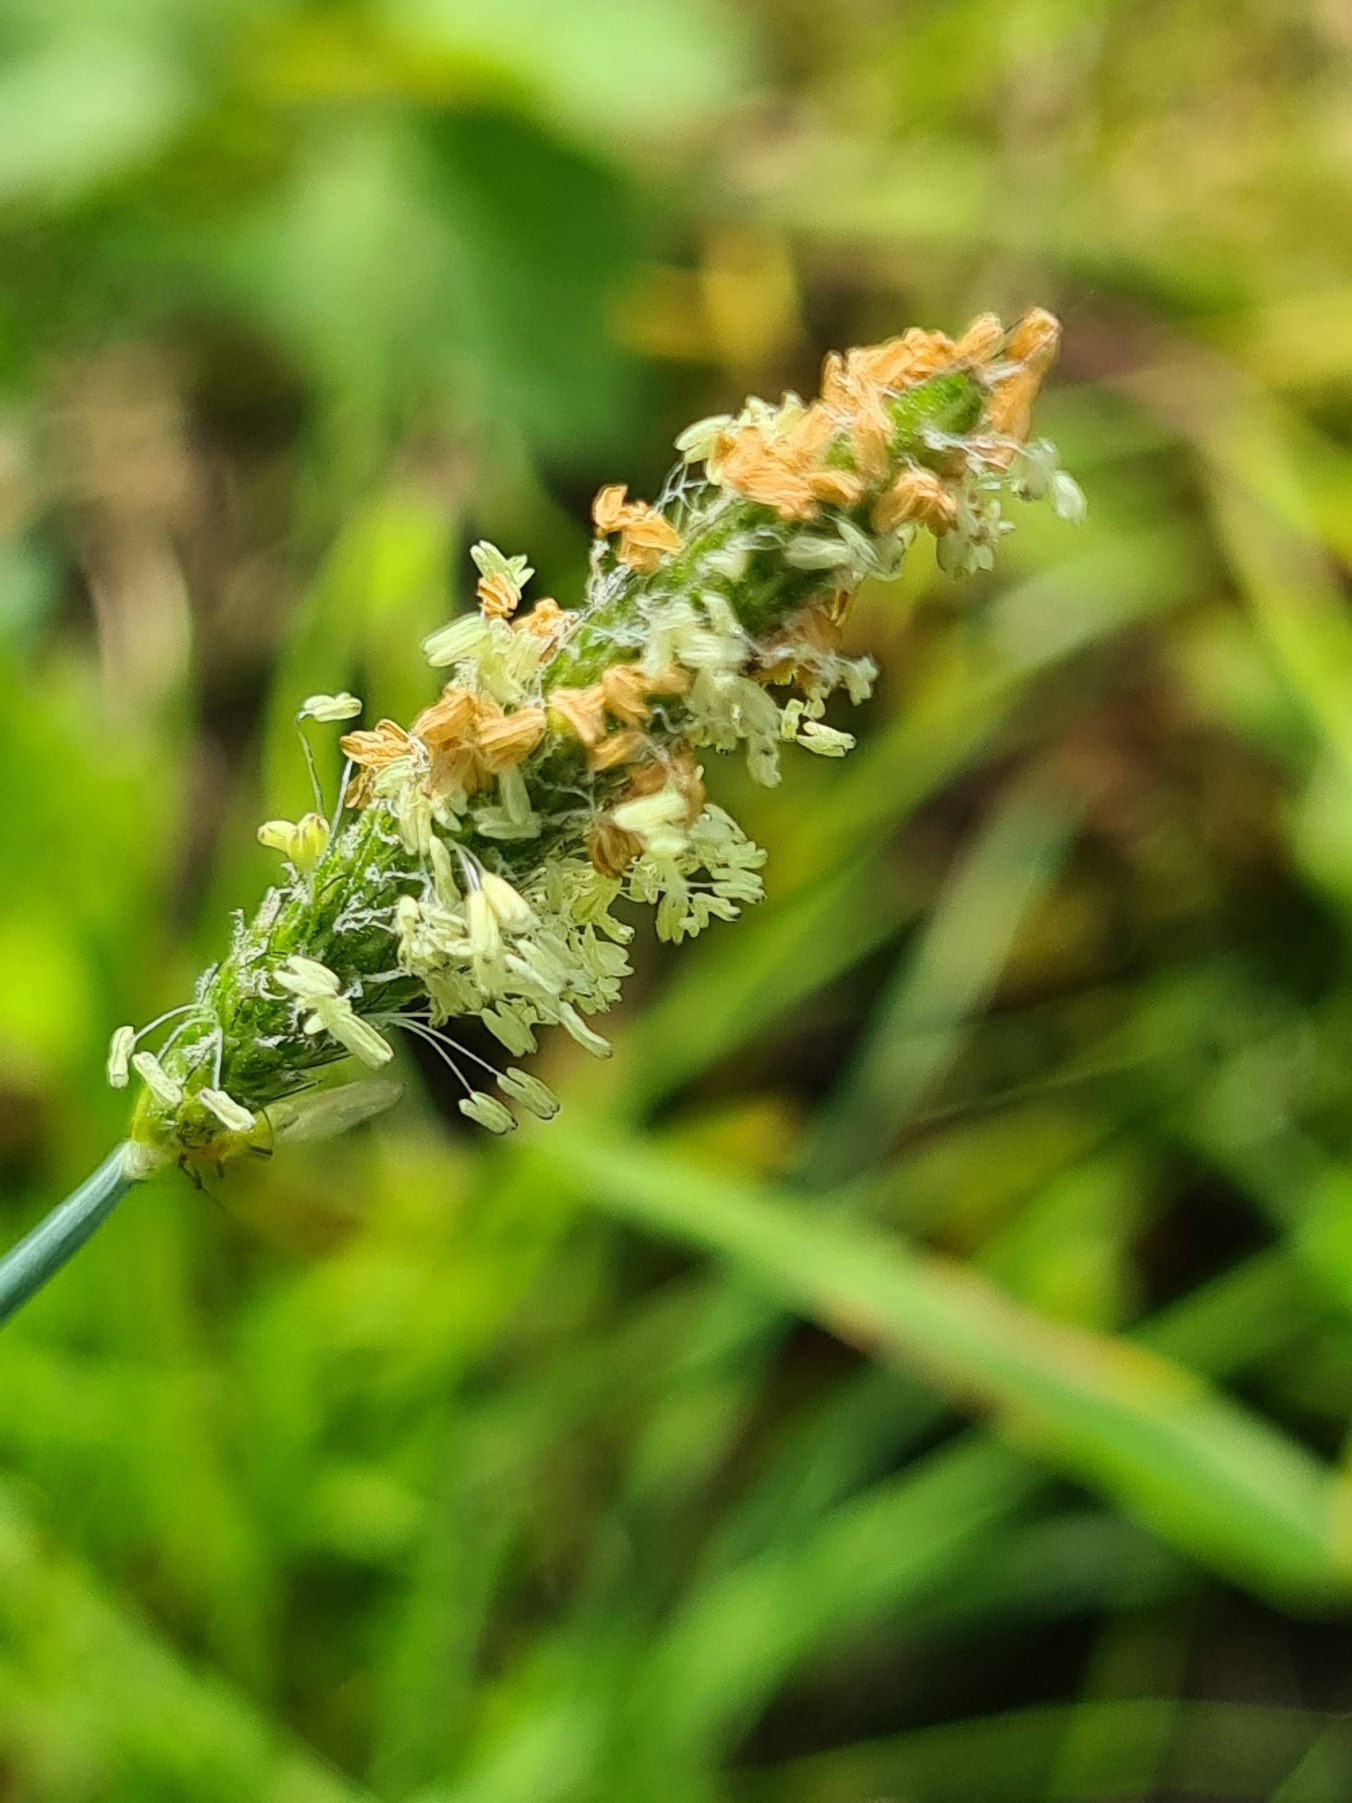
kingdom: Plantae
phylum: Tracheophyta
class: Liliopsida
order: Poales
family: Poaceae
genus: Alopecurus
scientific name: Alopecurus geniculatus
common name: Knæbøjet rævehale
